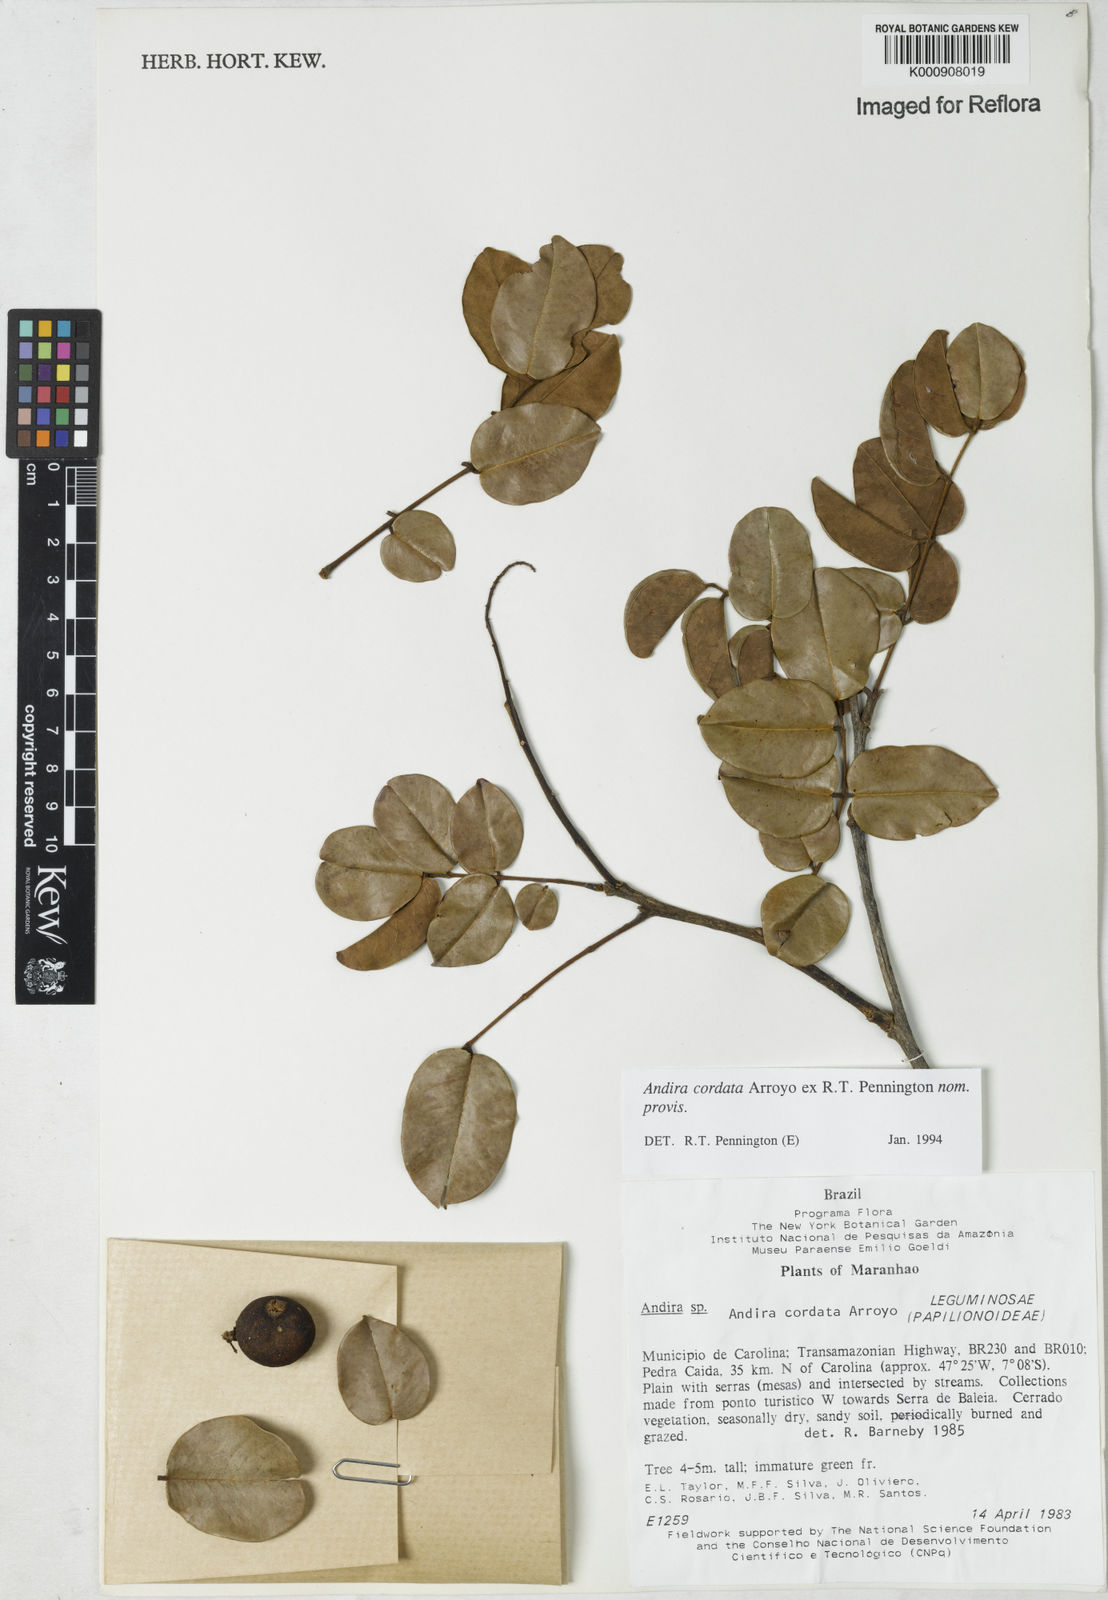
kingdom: Plantae
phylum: Tracheophyta
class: Magnoliopsida
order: Fabales
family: Fabaceae
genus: Andira
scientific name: Andira cordata
